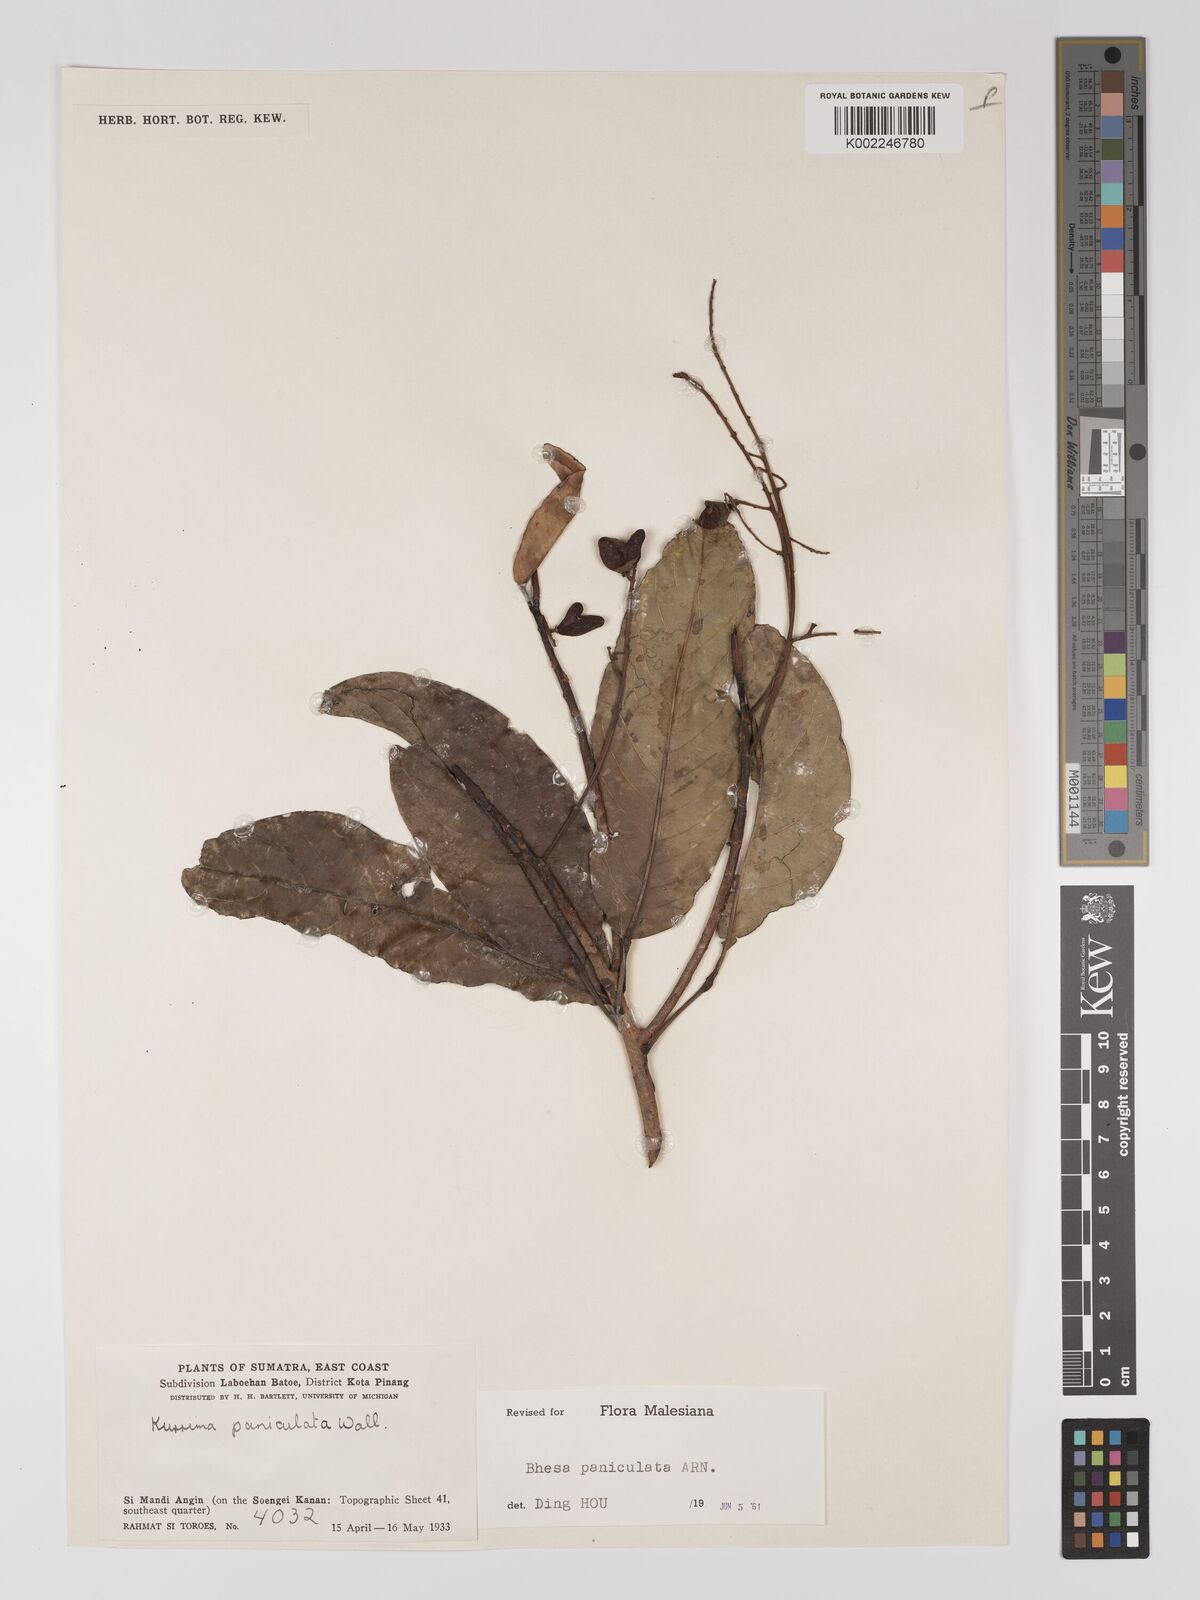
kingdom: Plantae
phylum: Tracheophyta
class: Magnoliopsida
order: Malpighiales
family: Centroplacaceae
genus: Bhesa
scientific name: Bhesa paniculata
